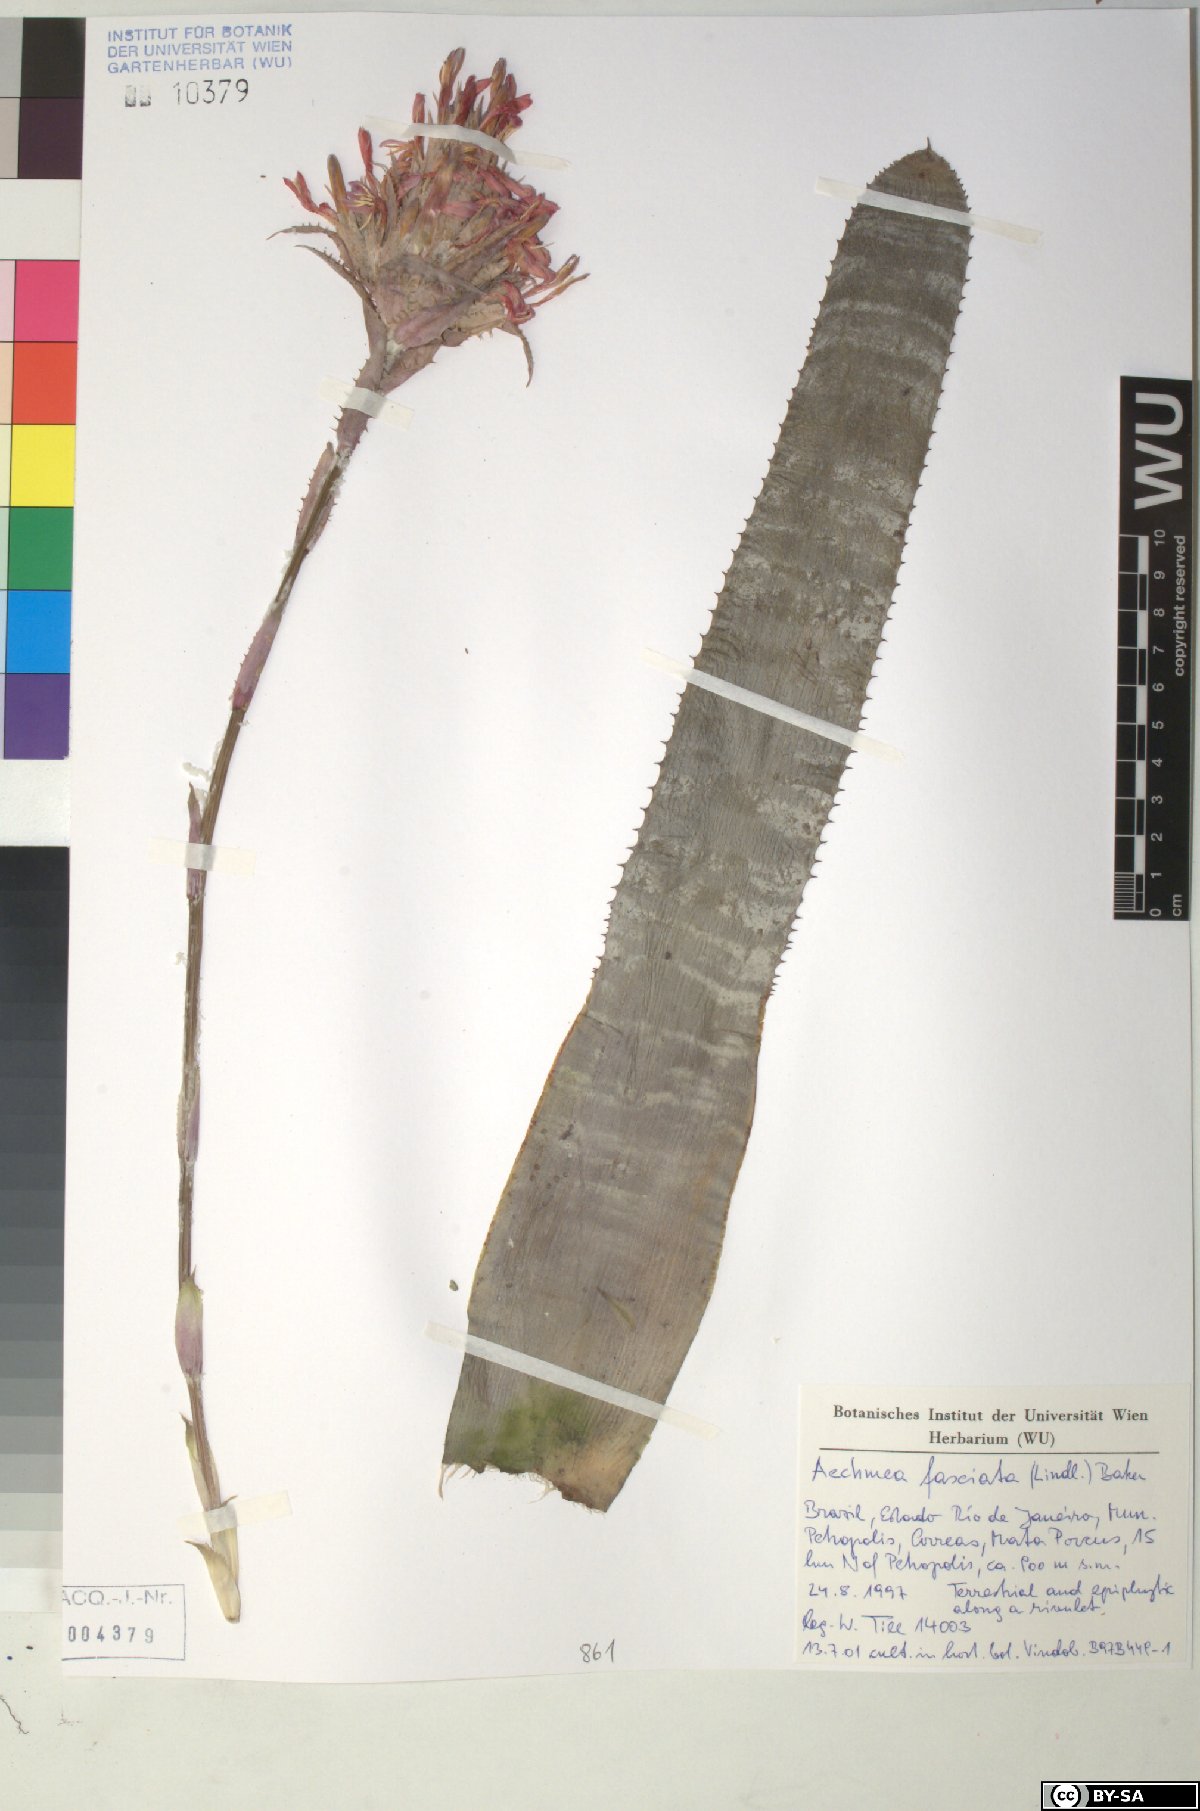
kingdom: Plantae
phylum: Tracheophyta
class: Liliopsida
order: Poales
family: Bromeliaceae
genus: Aechmea
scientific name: Aechmea fasciata
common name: Urnplant
